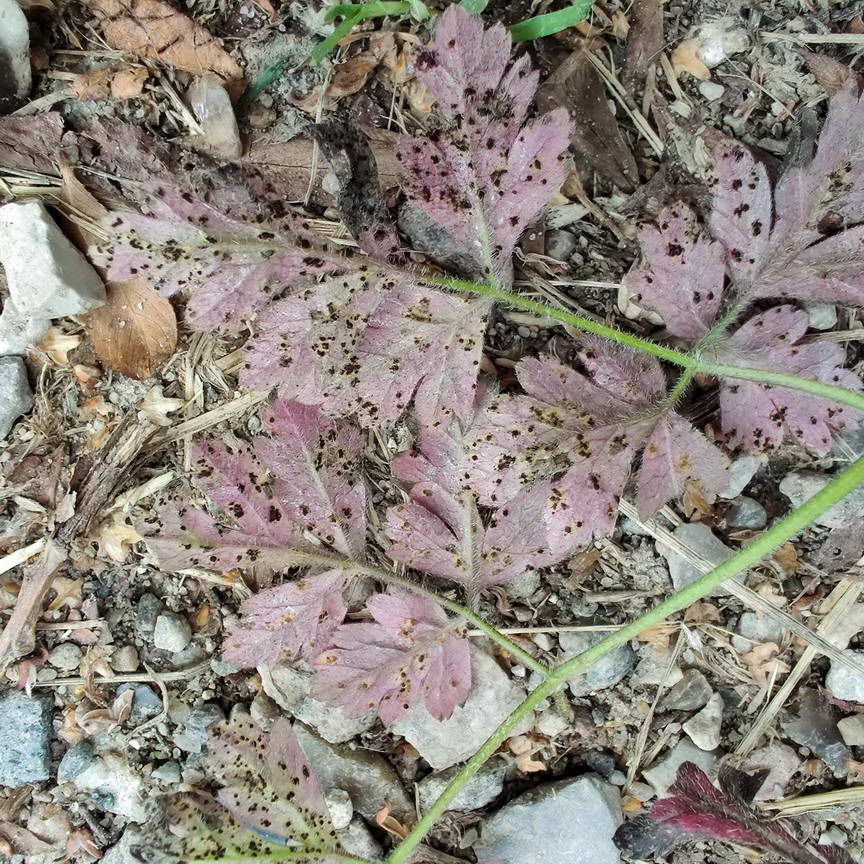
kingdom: Fungi
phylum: Basidiomycota
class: Pucciniomycetes
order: Pucciniales
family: Pucciniaceae
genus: Puccinia
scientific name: Puccinia chaerophylli
